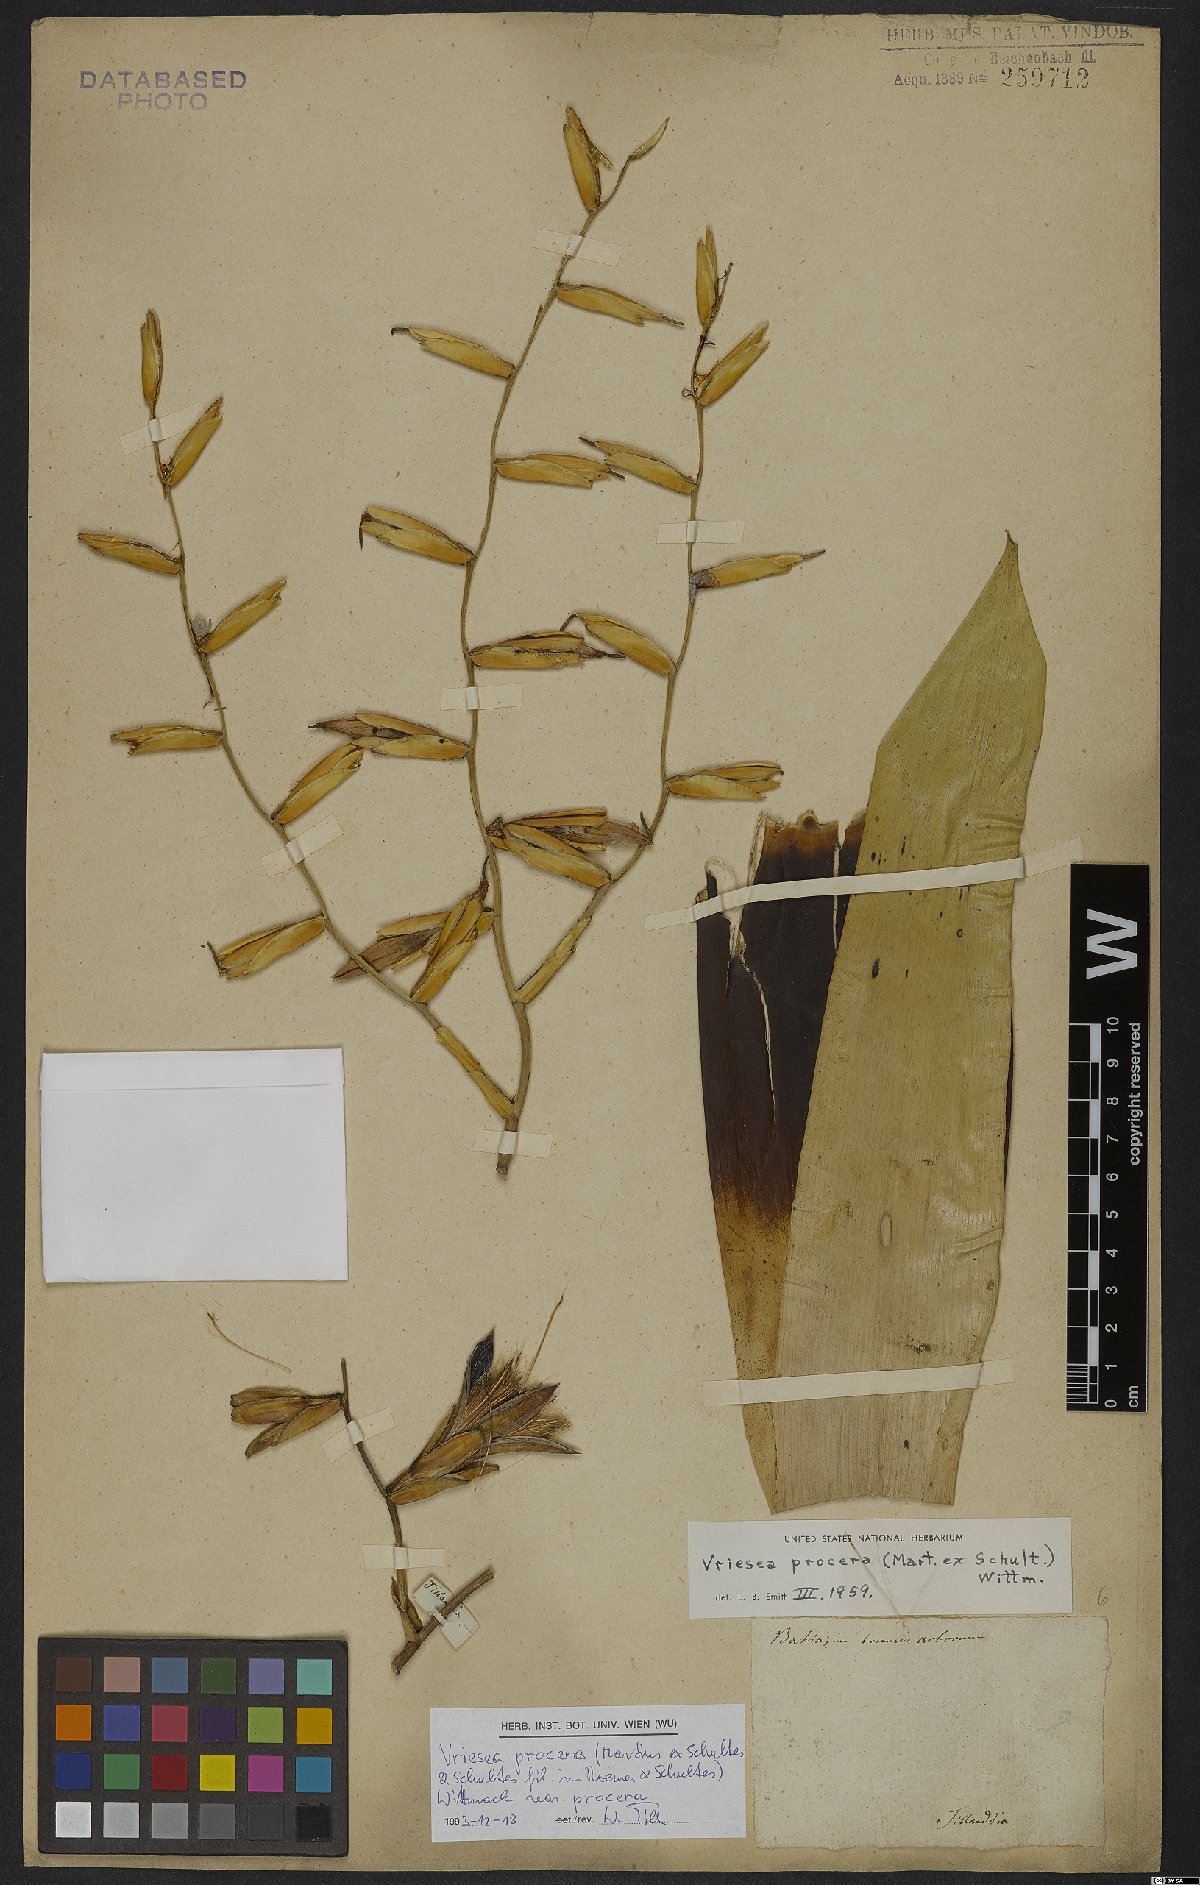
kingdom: Plantae
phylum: Tracheophyta
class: Liliopsida
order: Poales
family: Bromeliaceae
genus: Vriesea
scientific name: Vriesea procera
